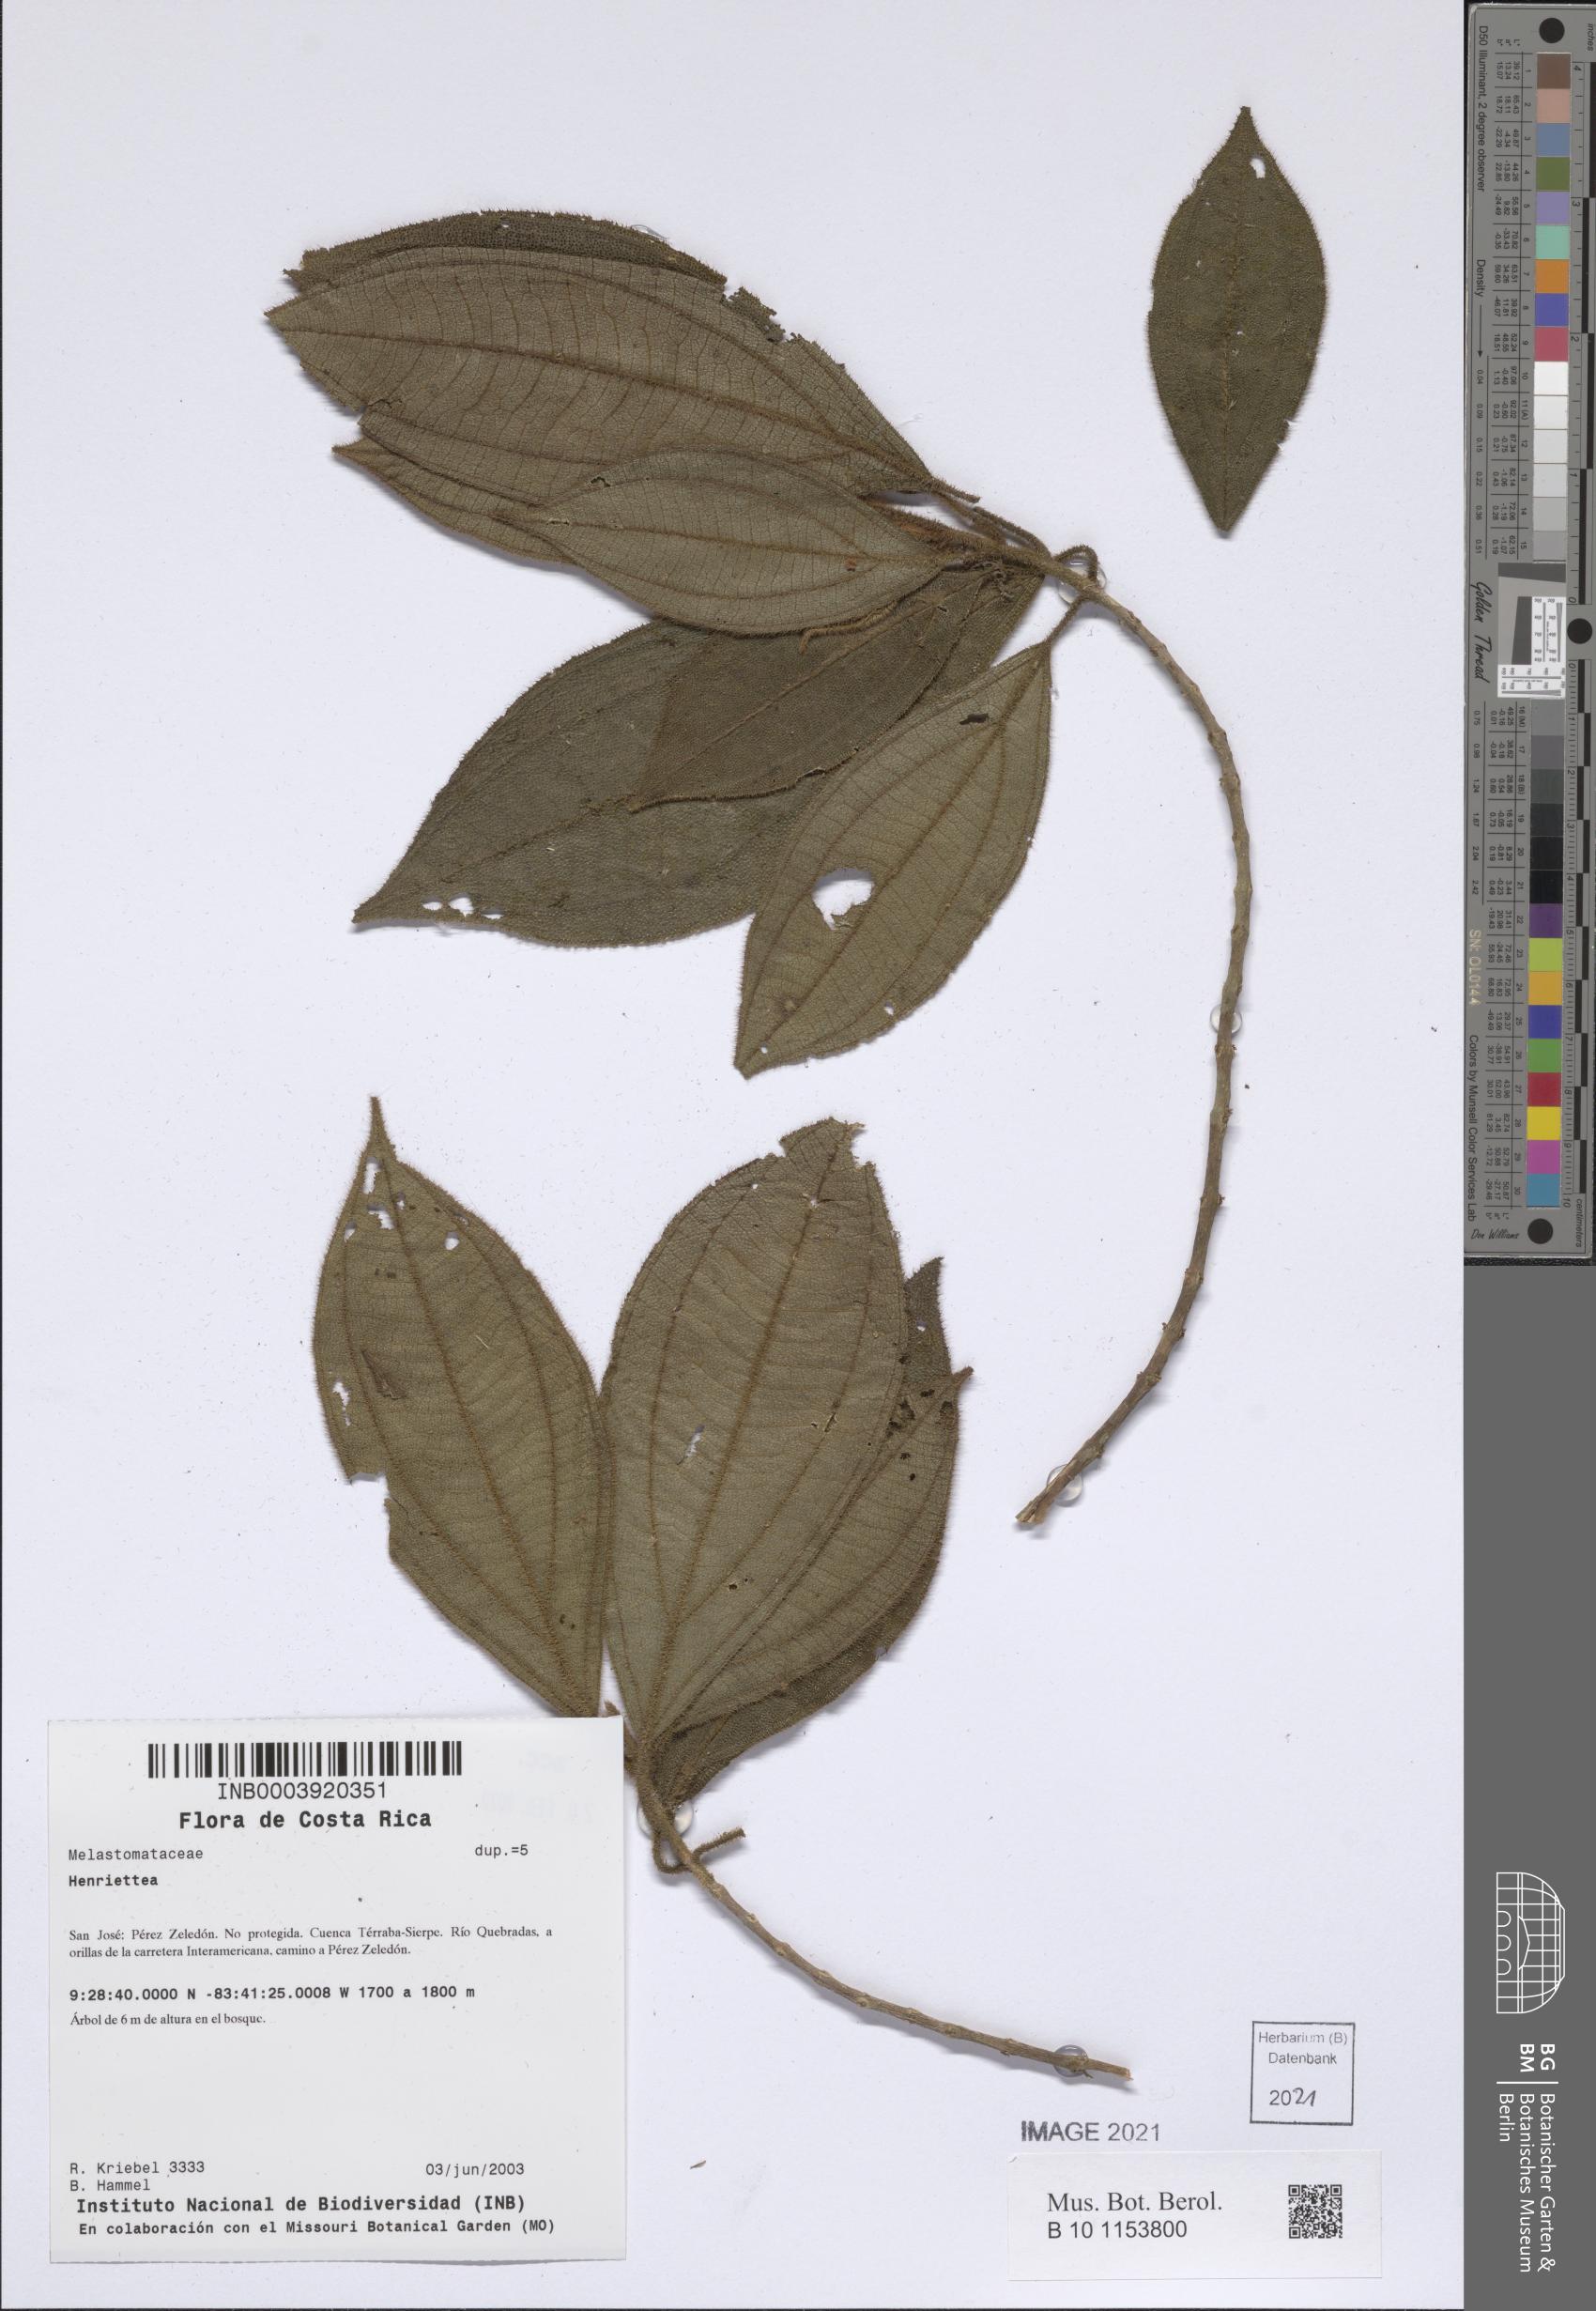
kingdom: Plantae
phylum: Tracheophyta
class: Magnoliopsida
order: Myrtales
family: Melastomataceae
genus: Henriettea
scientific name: Henriettea
